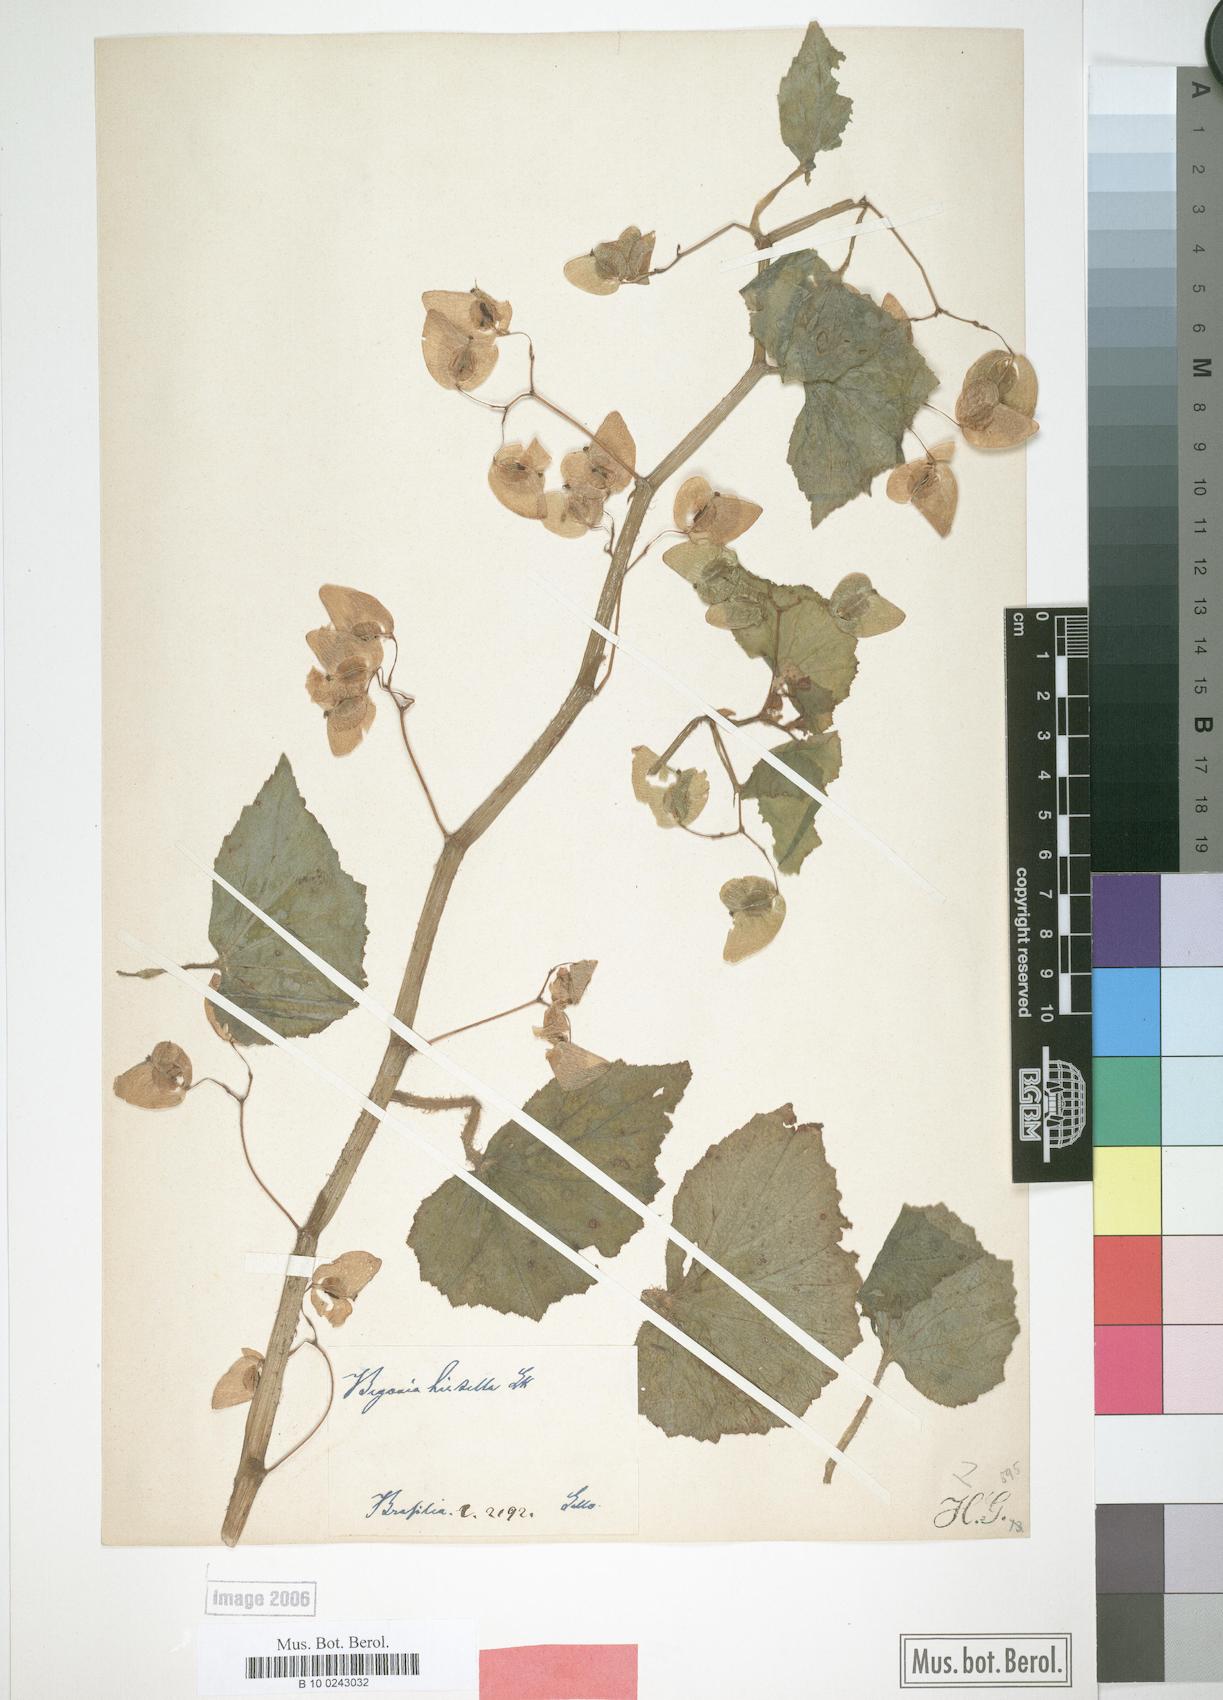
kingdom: Plantae
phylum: Tracheophyta
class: Magnoliopsida
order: Cucurbitales
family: Begoniaceae
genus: Begonia
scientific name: Begonia hirtella
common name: Brazilian begonia
